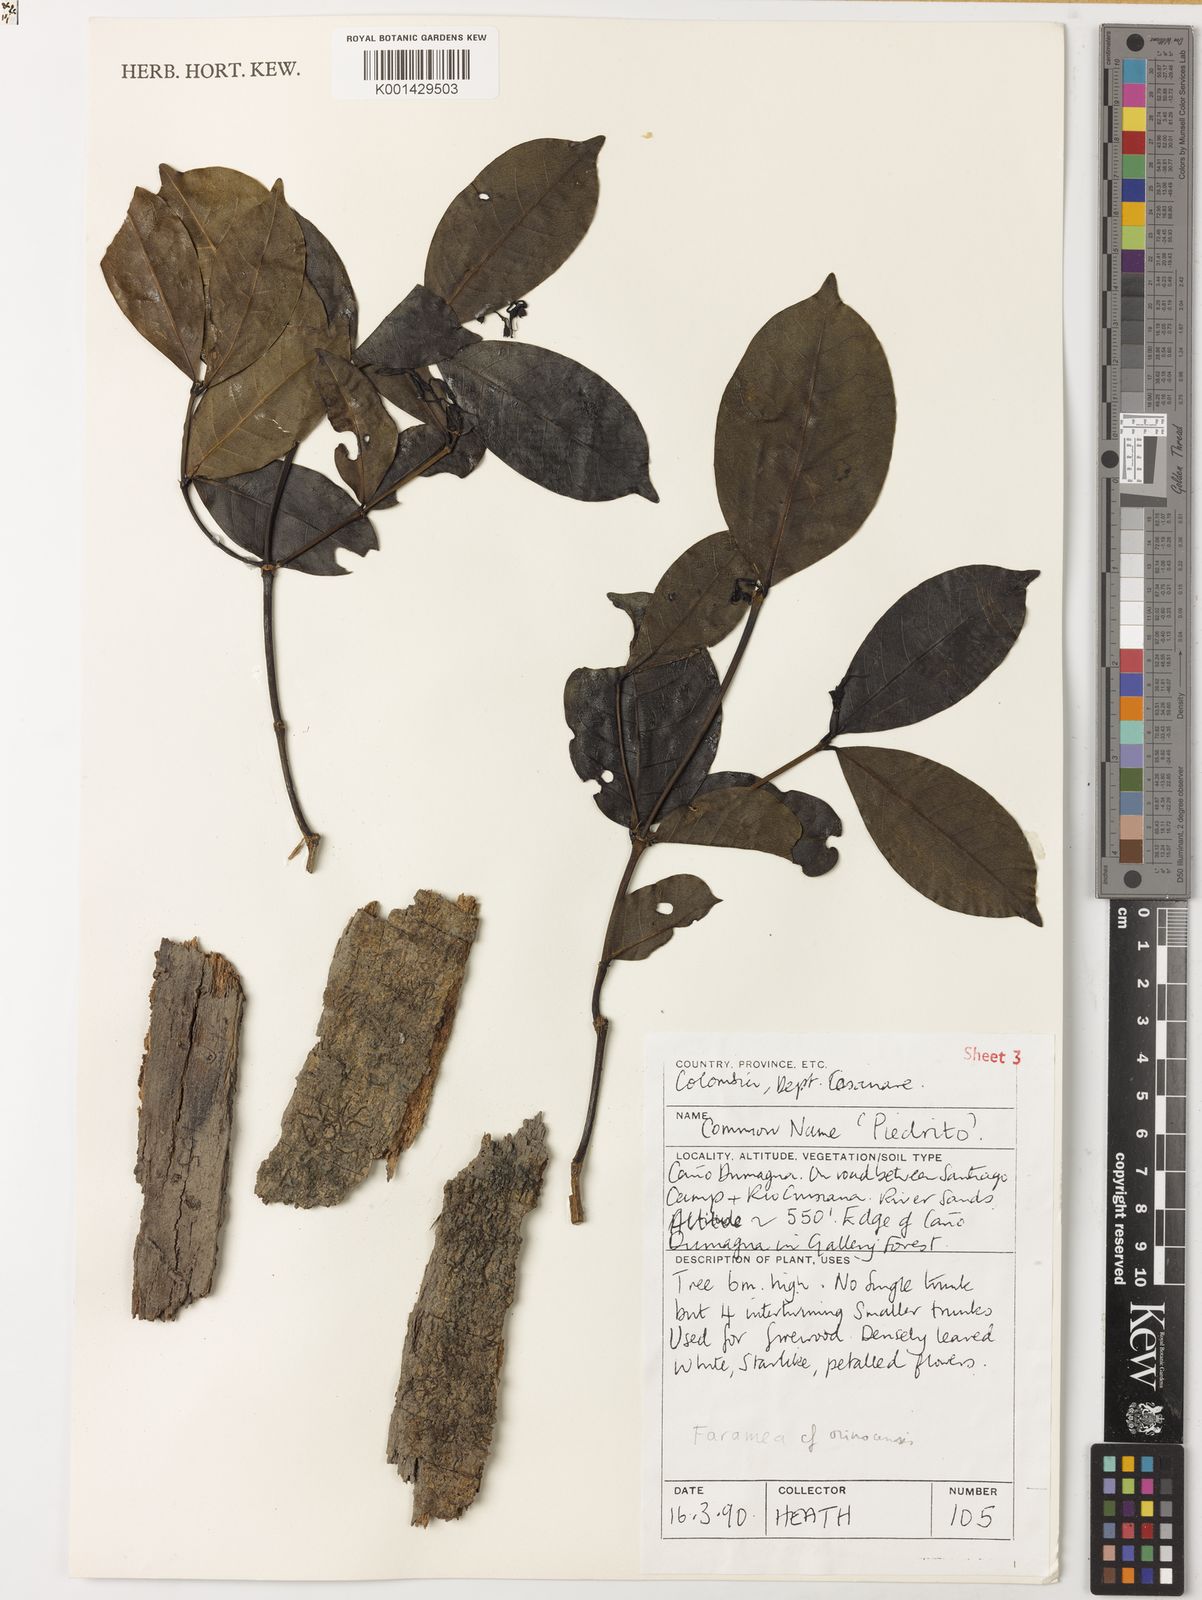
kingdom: Plantae
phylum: Tracheophyta
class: Magnoliopsida
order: Gentianales
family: Rubiaceae
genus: Faramea
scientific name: Faramea orinocencis
